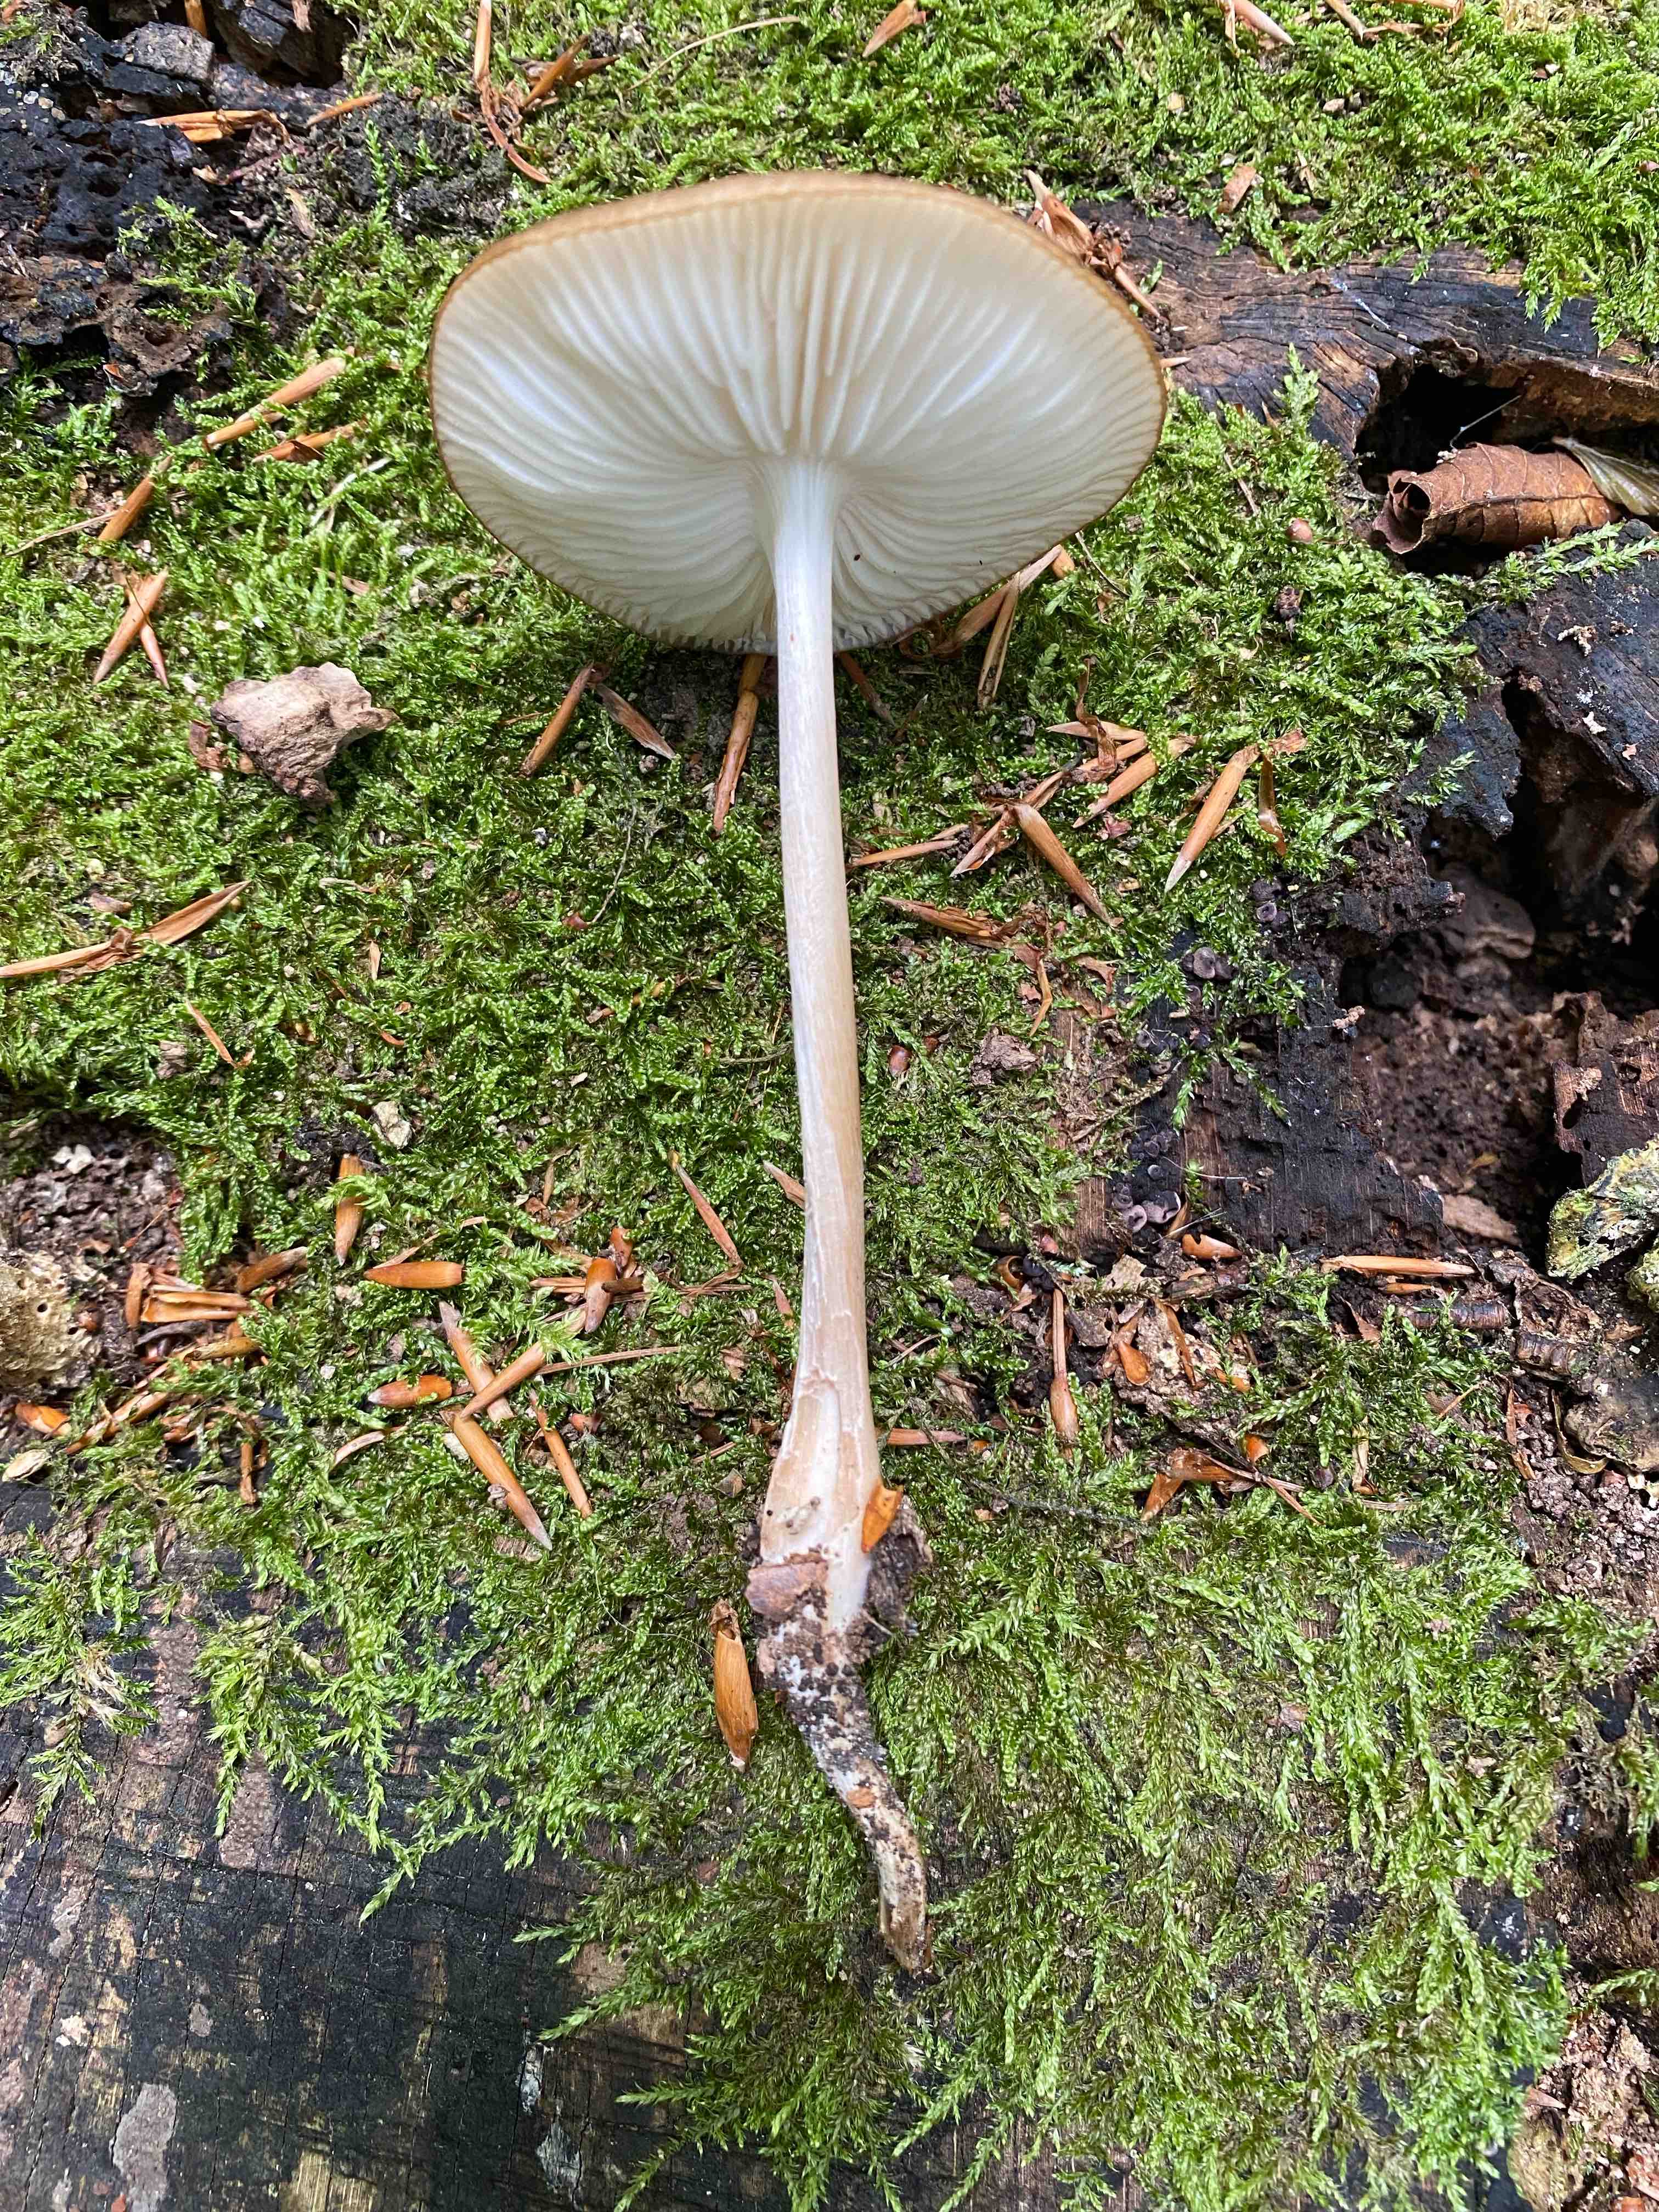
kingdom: Fungi
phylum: Basidiomycota
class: Agaricomycetes
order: Agaricales
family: Physalacriaceae
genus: Hymenopellis
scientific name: Hymenopellis radicata
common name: almindelig pælerodshat
